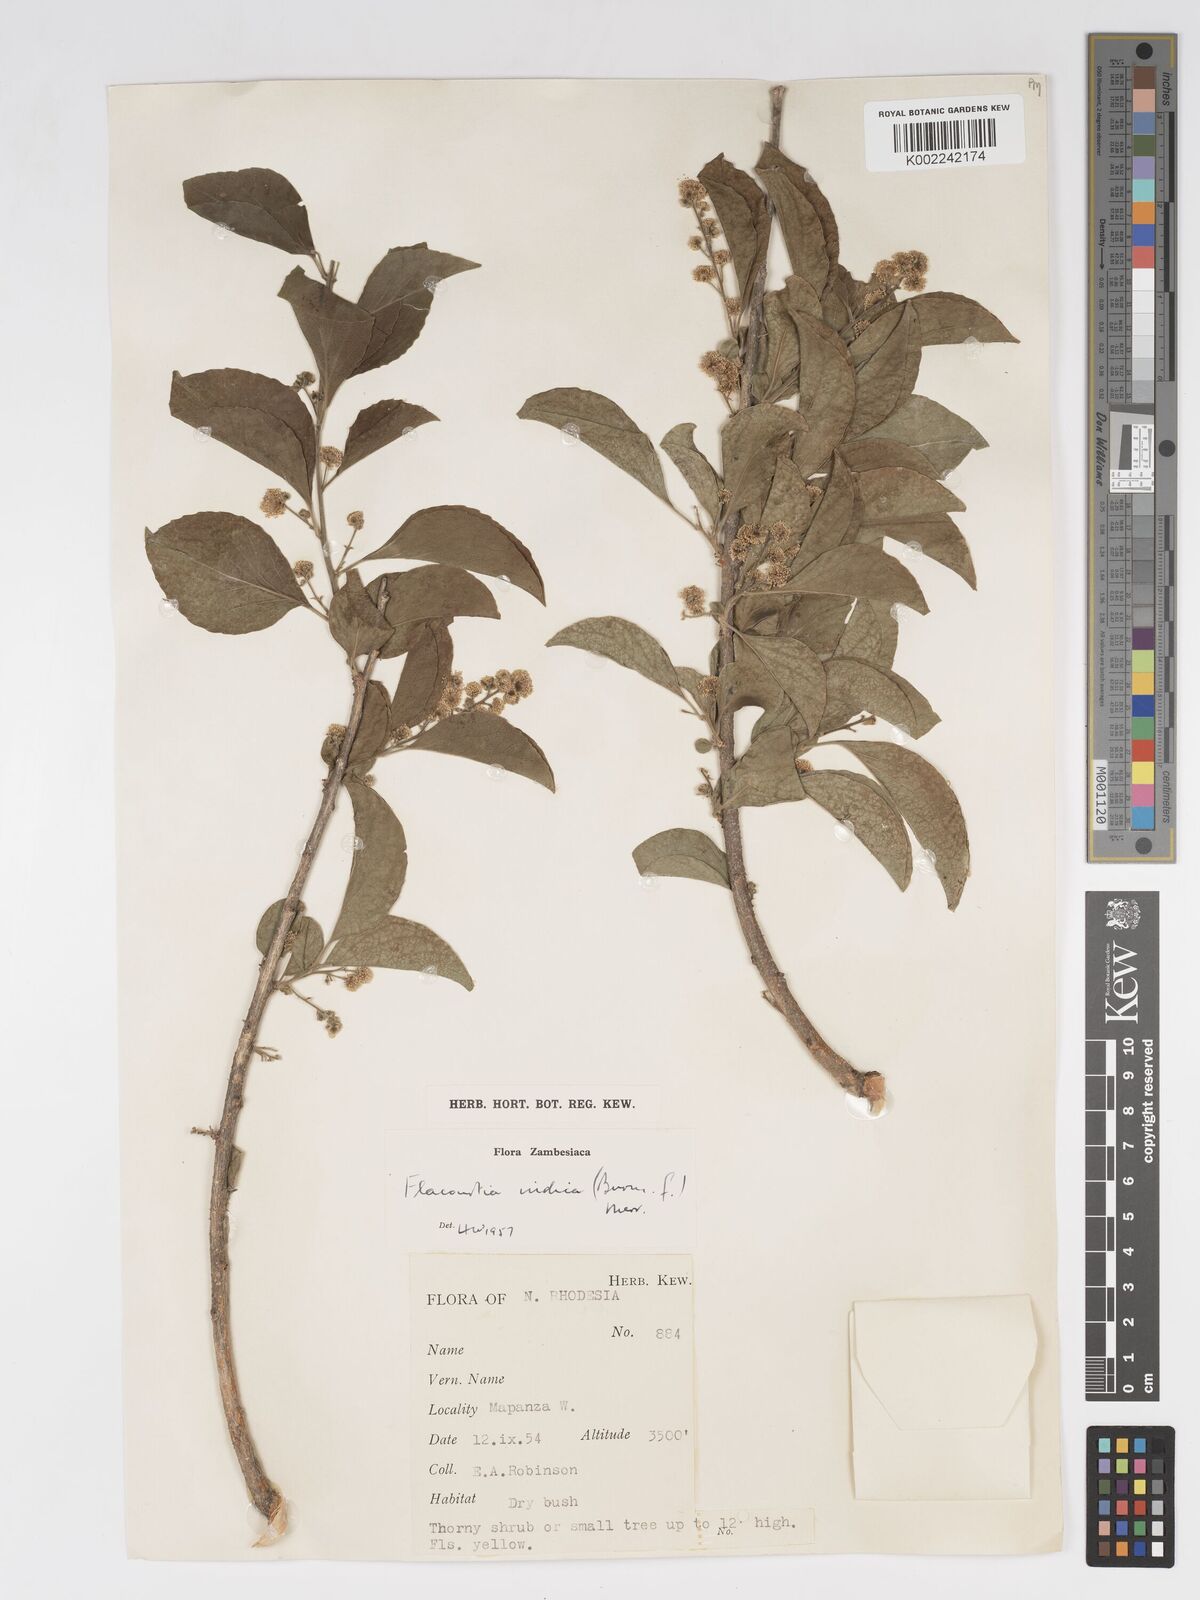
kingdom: Plantae
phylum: Tracheophyta
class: Magnoliopsida
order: Malpighiales
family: Salicaceae
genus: Flacourtia
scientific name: Flacourtia indica
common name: Governor's plum
